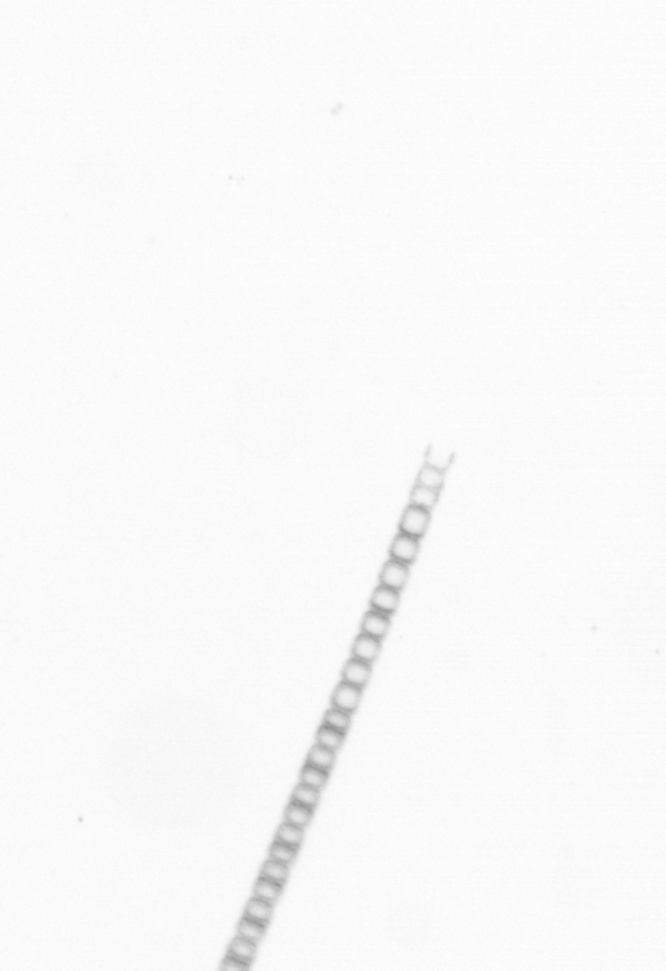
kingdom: Chromista
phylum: Ochrophyta
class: Bacillariophyceae
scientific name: Bacillariophyceae
